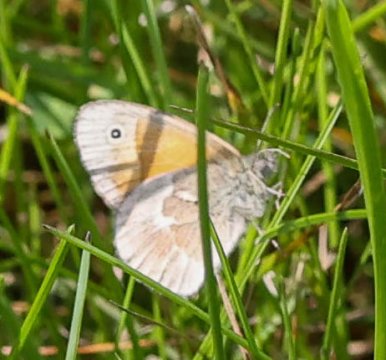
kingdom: Animalia
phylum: Arthropoda
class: Insecta
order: Lepidoptera
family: Nymphalidae
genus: Coenonympha
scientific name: Coenonympha tullia
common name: Large Heath
